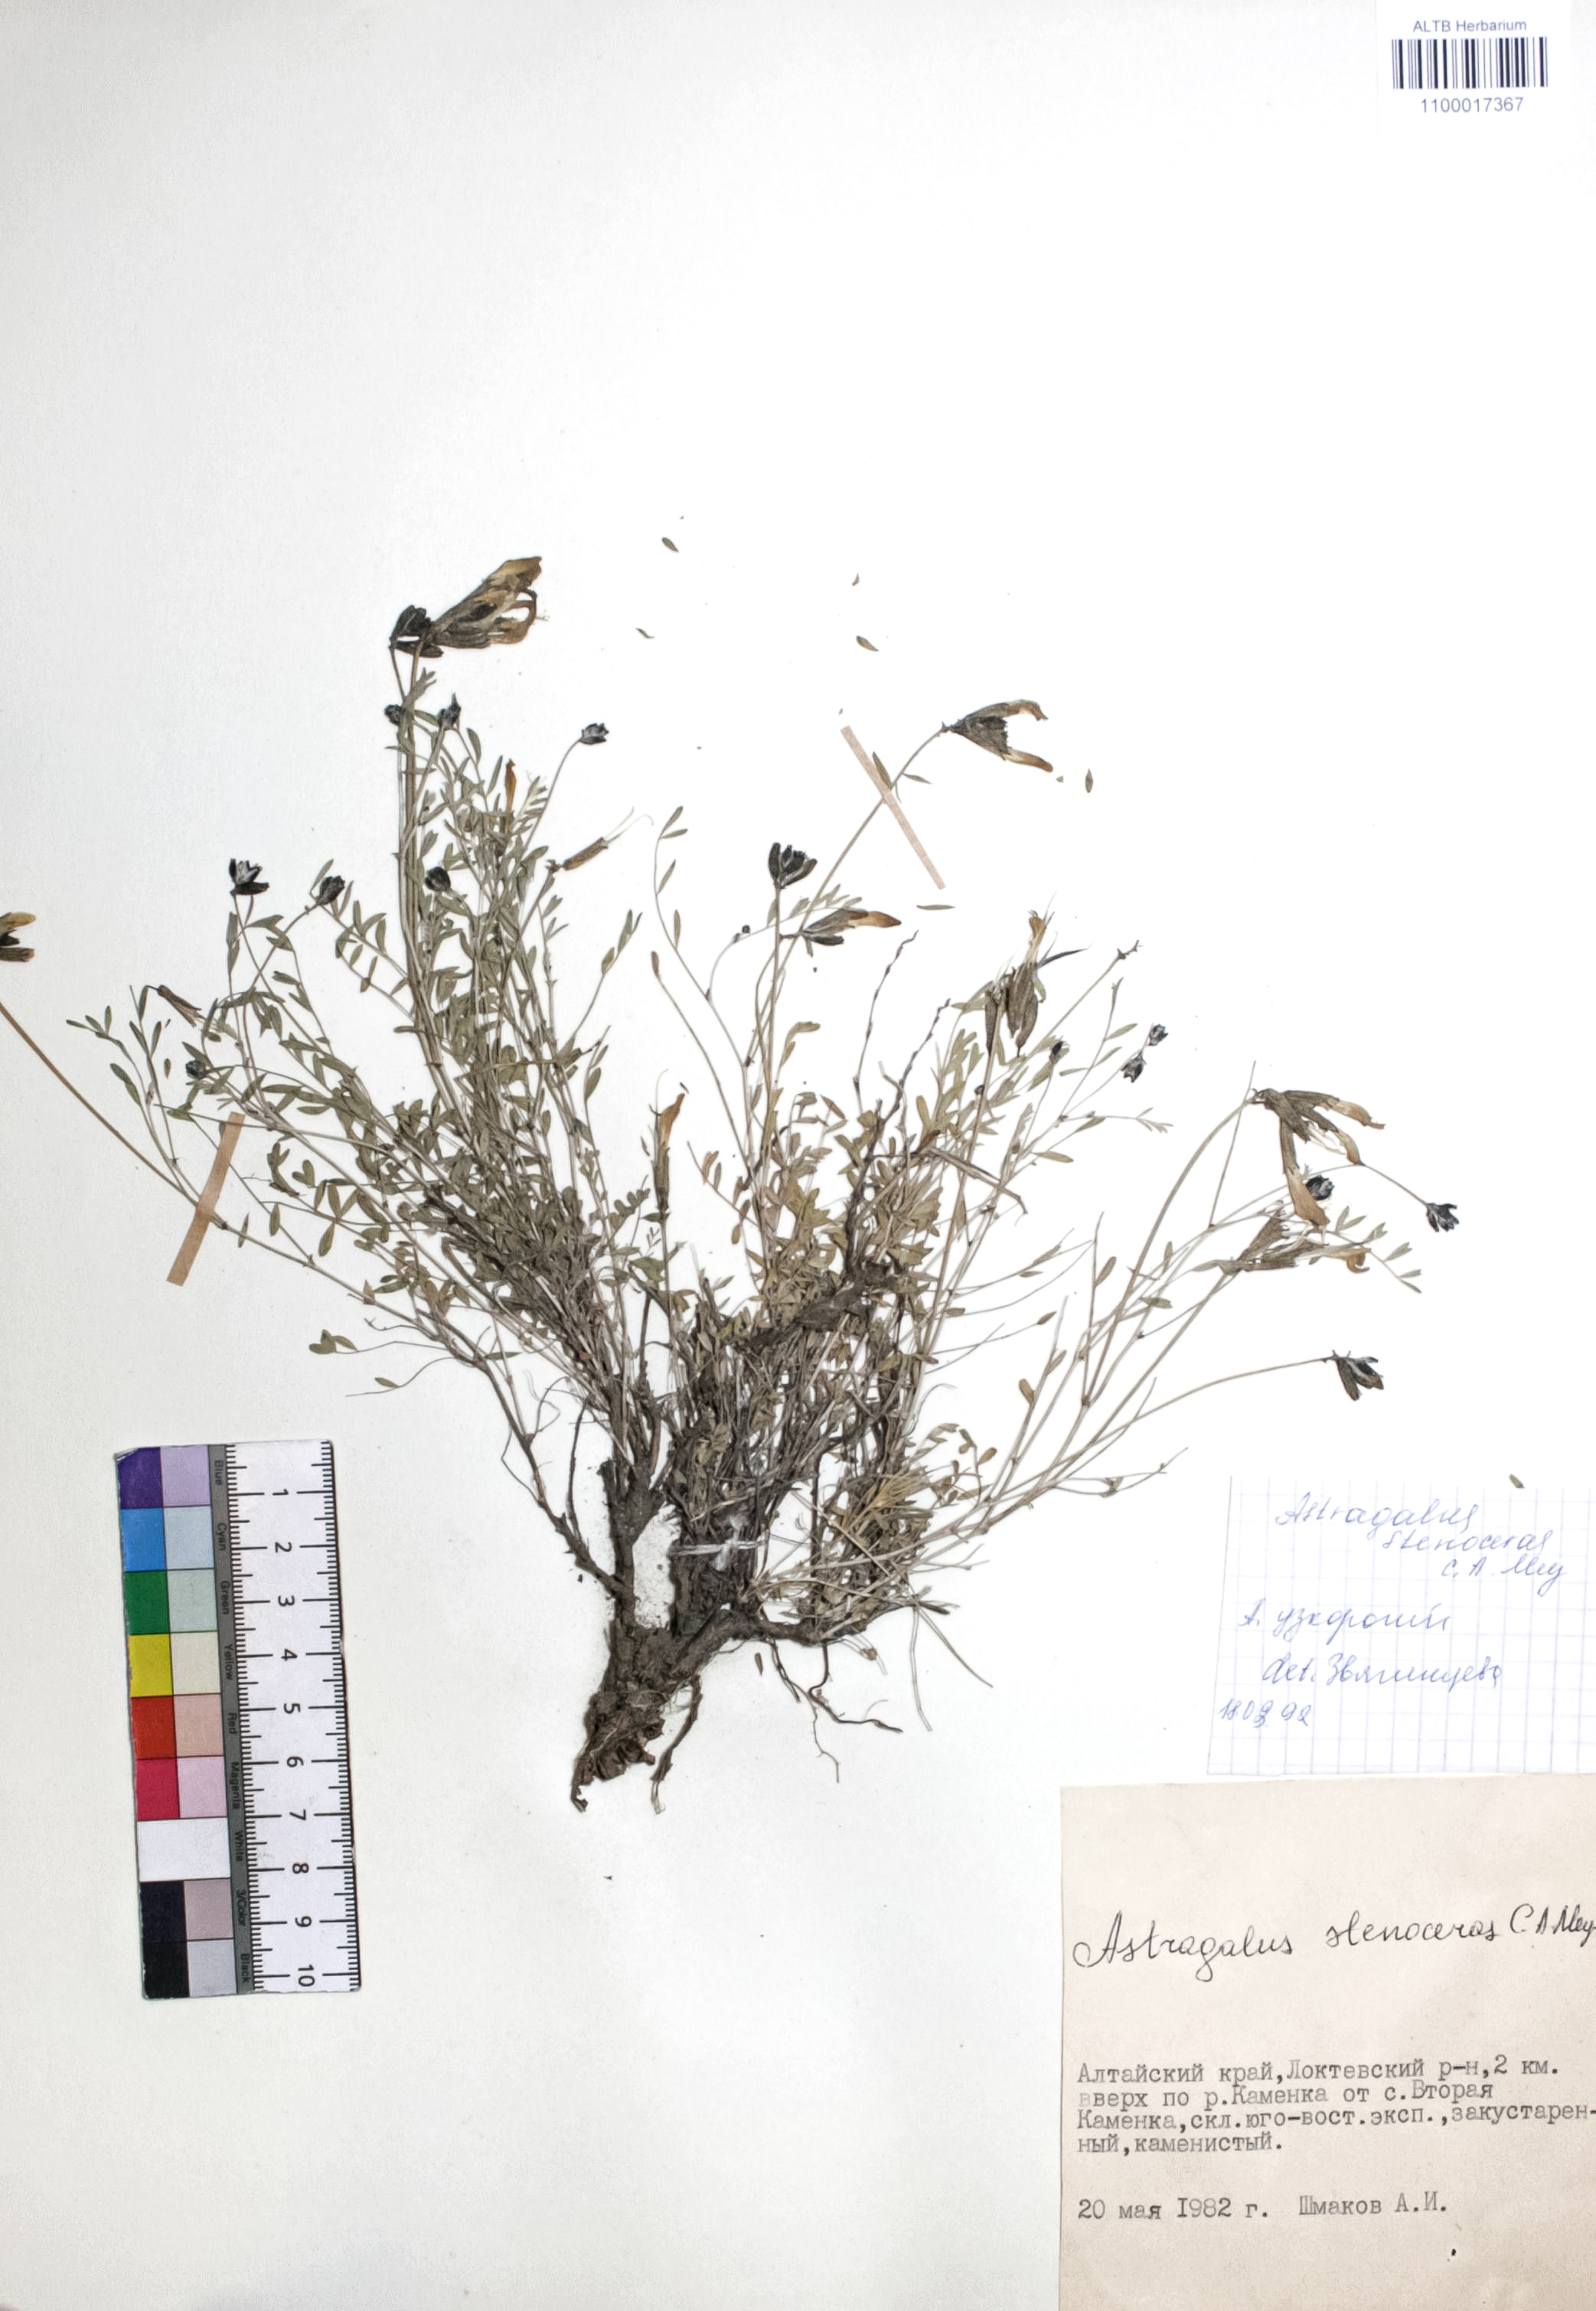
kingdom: Plantae
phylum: Tracheophyta
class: Magnoliopsida
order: Fabales
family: Fabaceae
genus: Astragalus
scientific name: Astragalus stenoceras
